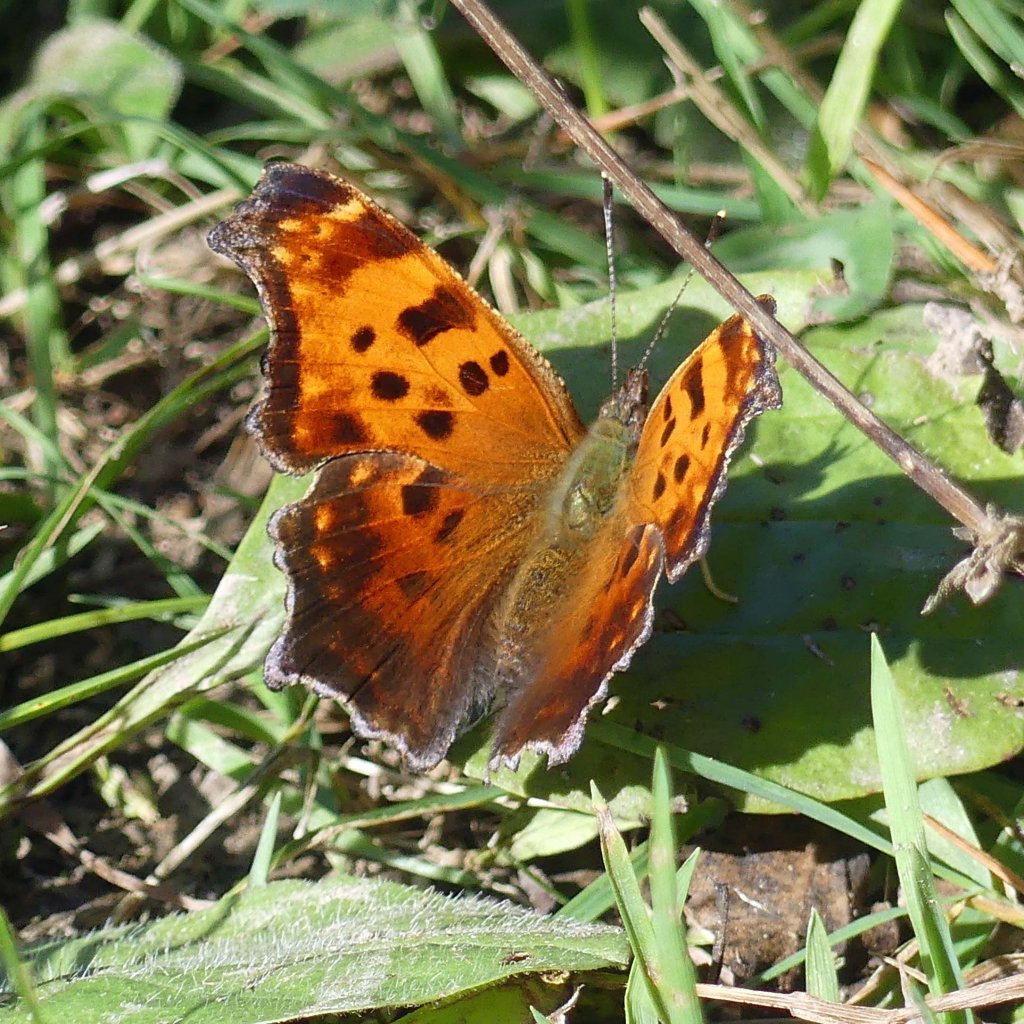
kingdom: Animalia
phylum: Arthropoda
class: Insecta
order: Lepidoptera
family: Nymphalidae
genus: Polygonia
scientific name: Polygonia comma
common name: Eastern Comma
